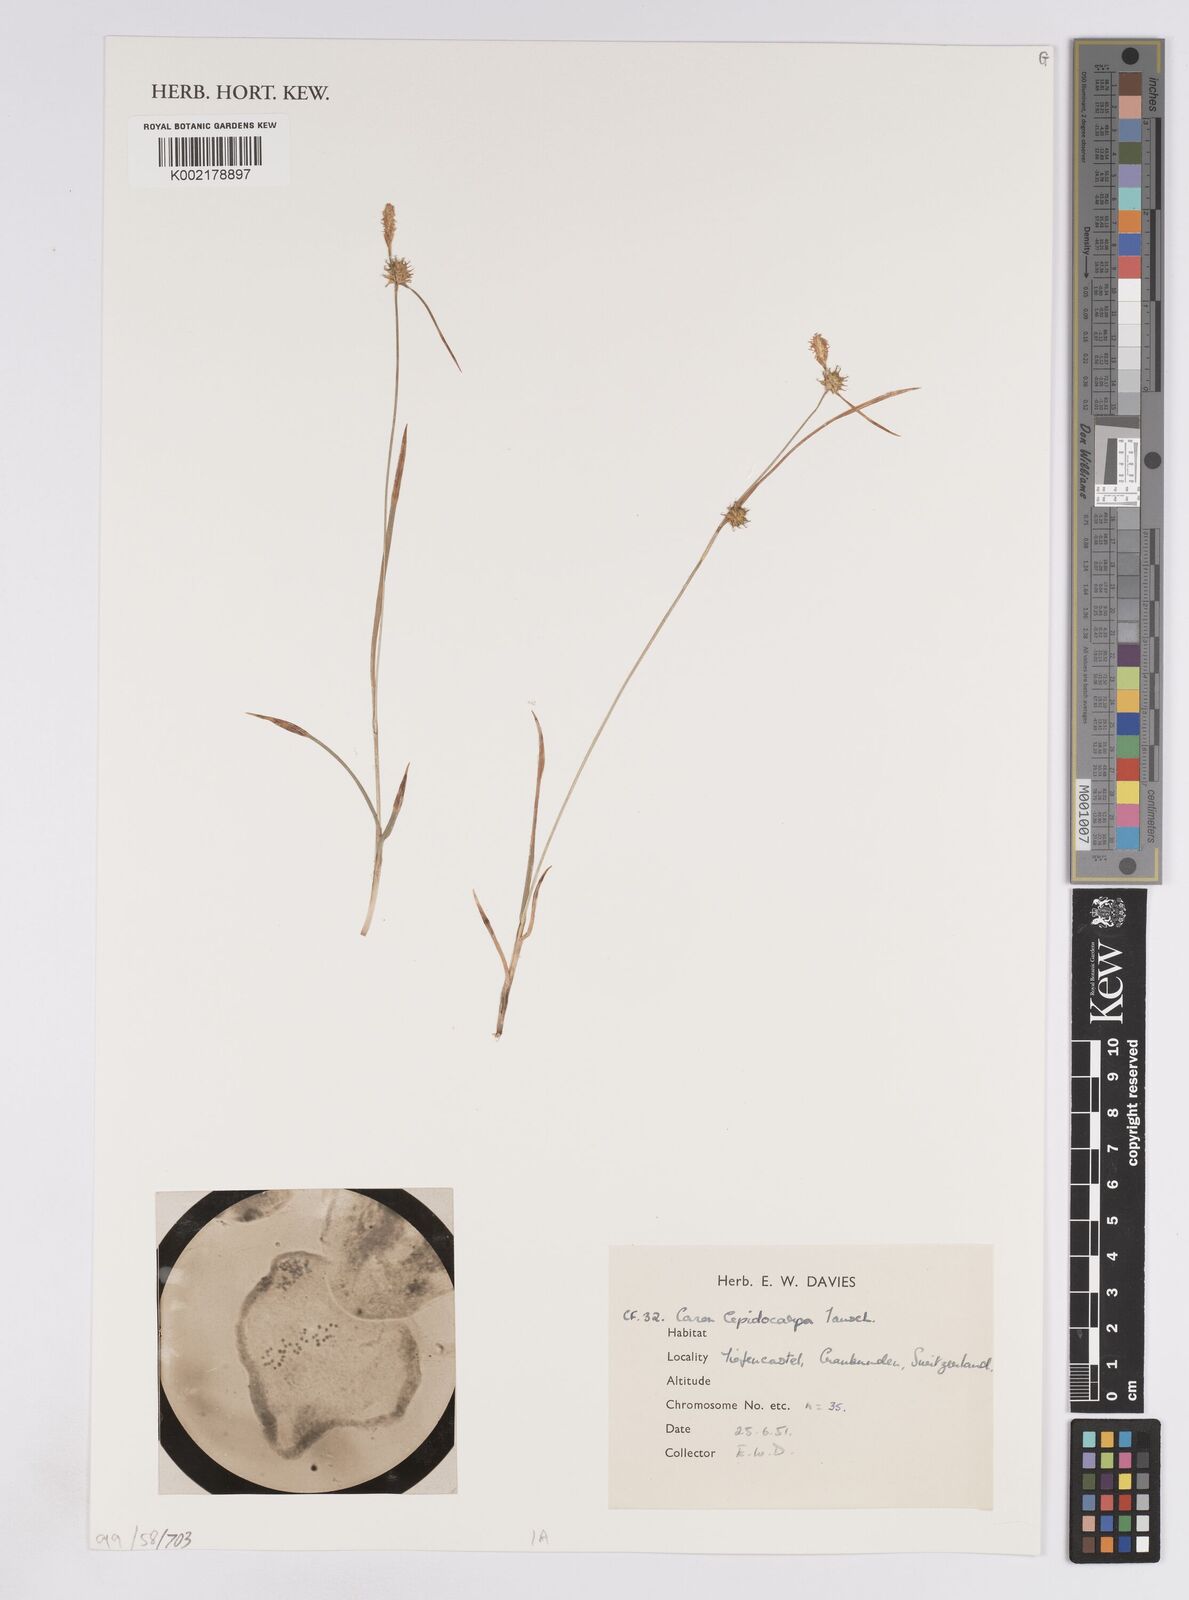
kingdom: Plantae
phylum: Tracheophyta
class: Liliopsida
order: Poales
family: Cyperaceae
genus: Carex
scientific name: Carex lepidocarpa
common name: Long-stalked yellow-sedge
